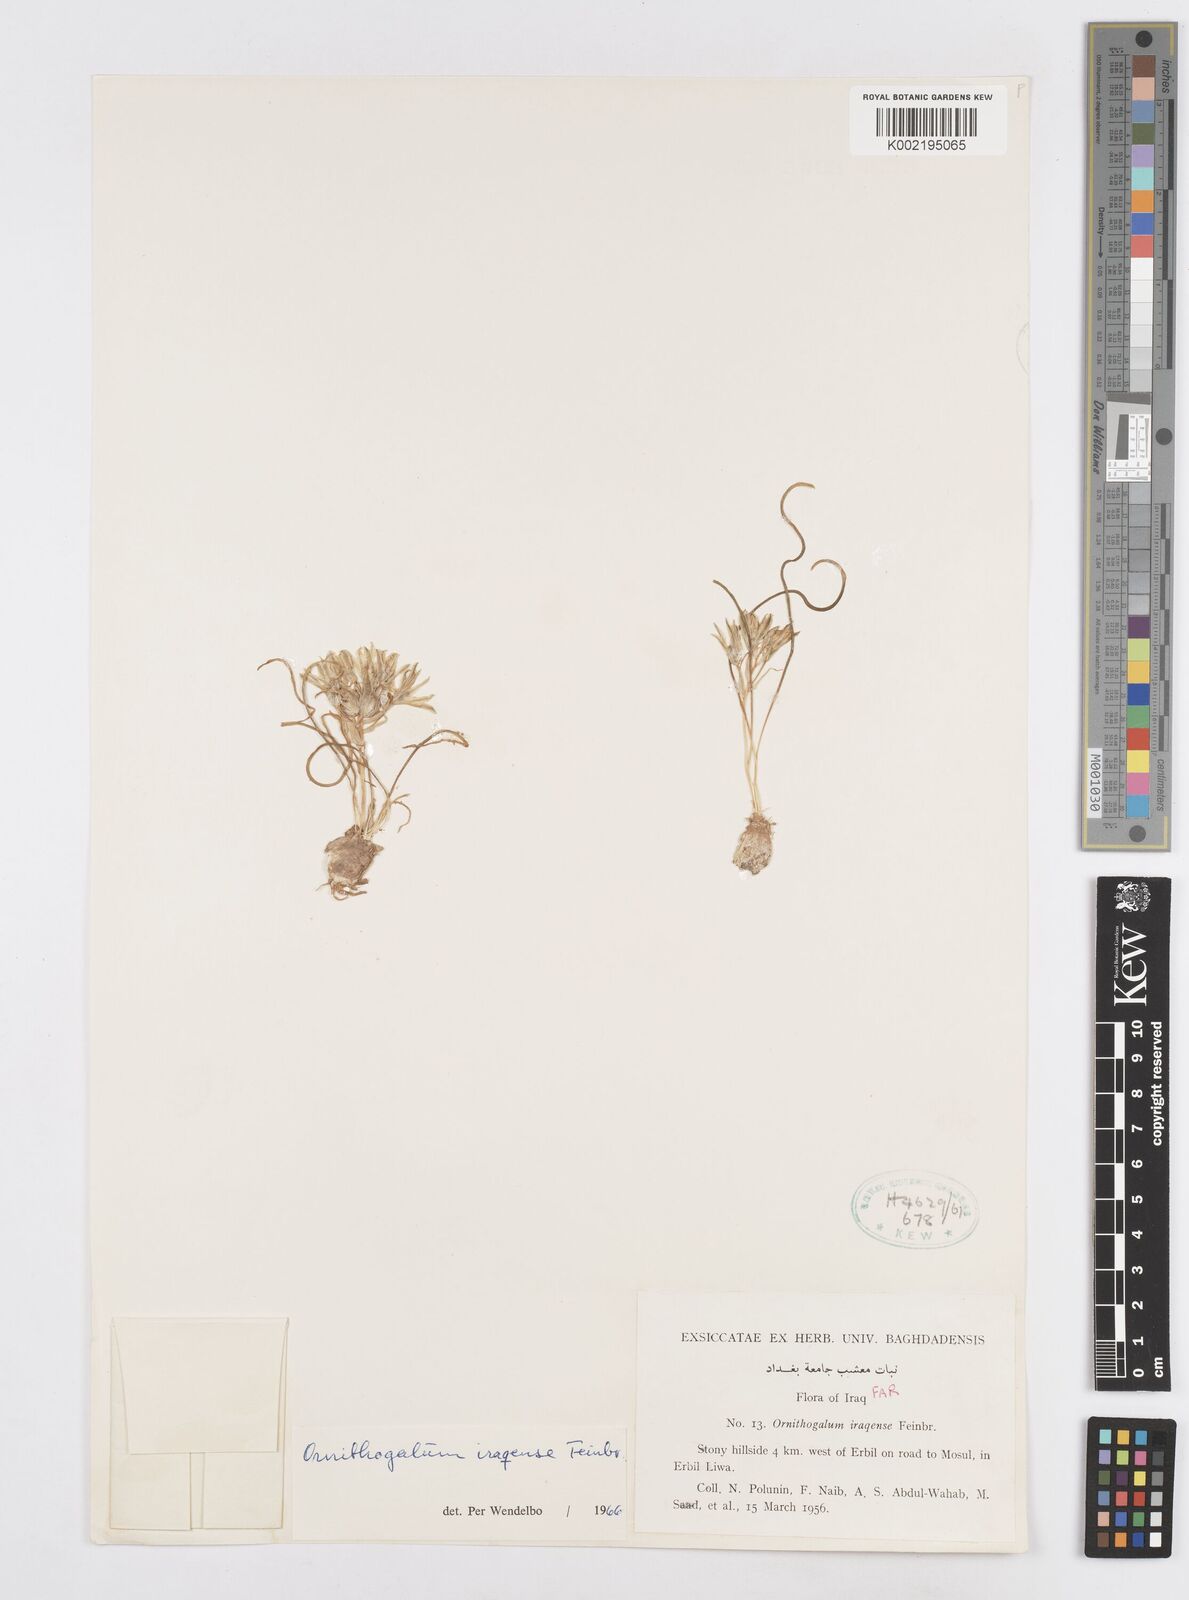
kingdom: Plantae
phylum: Tracheophyta
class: Liliopsida
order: Asparagales
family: Asparagaceae
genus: Ornithogalum
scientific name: Ornithogalum iraqense
